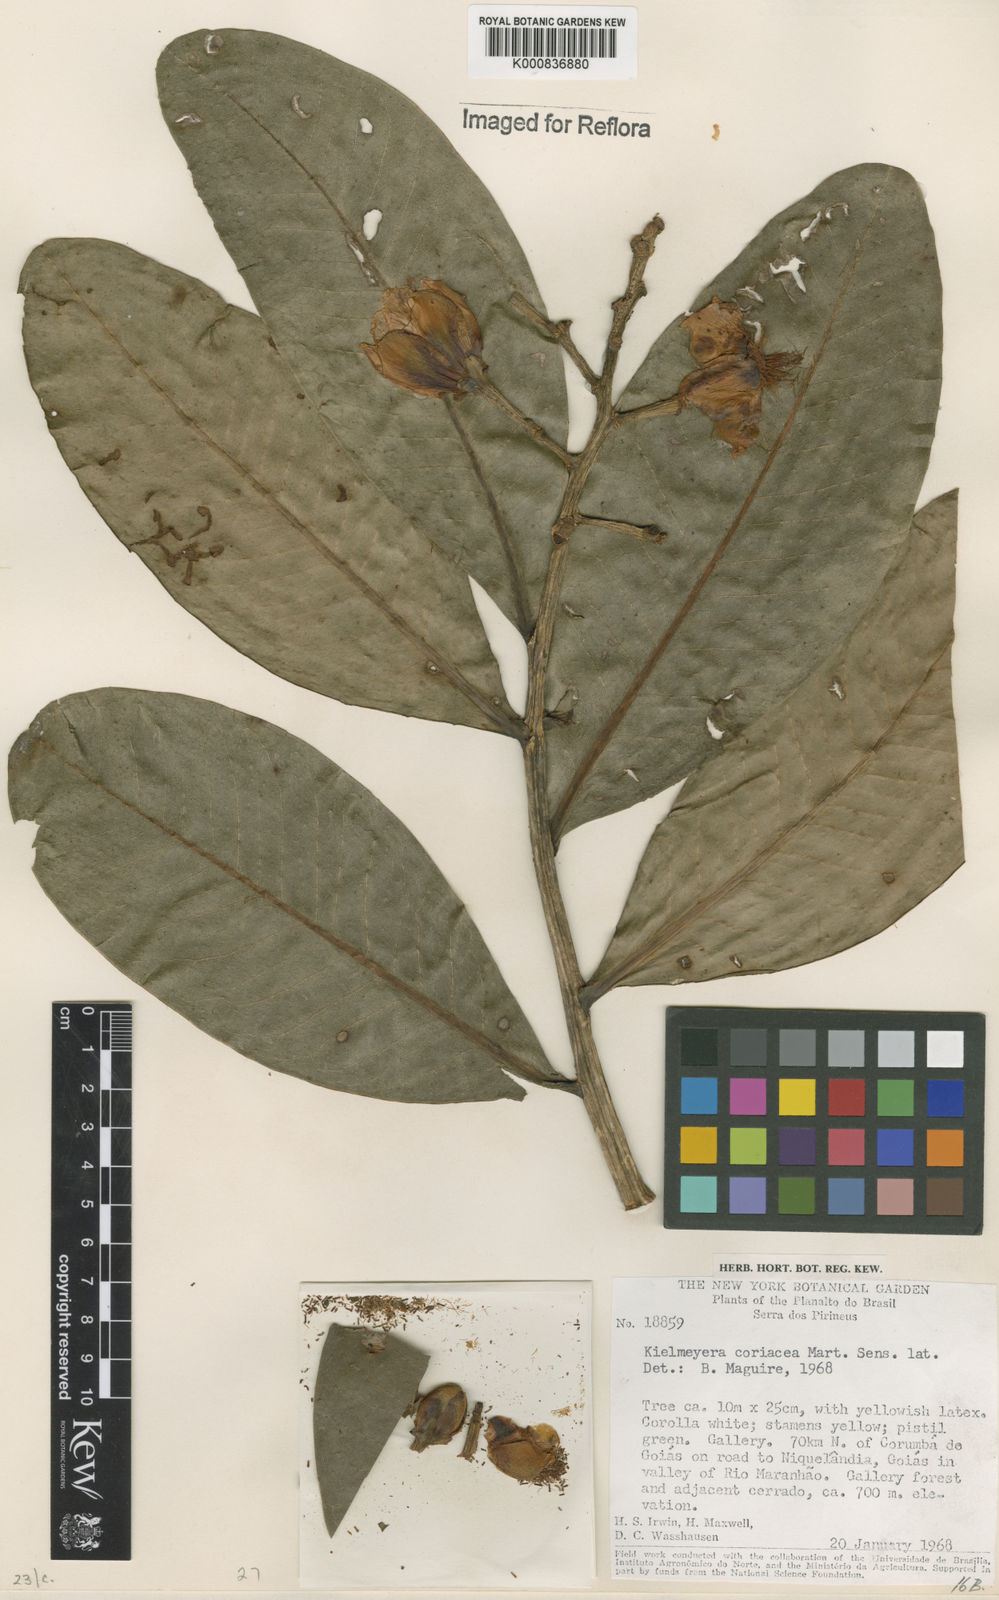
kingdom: Plantae
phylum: Tracheophyta
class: Magnoliopsida
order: Malpighiales
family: Calophyllaceae
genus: Kielmeyera
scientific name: Kielmeyera coriacea
